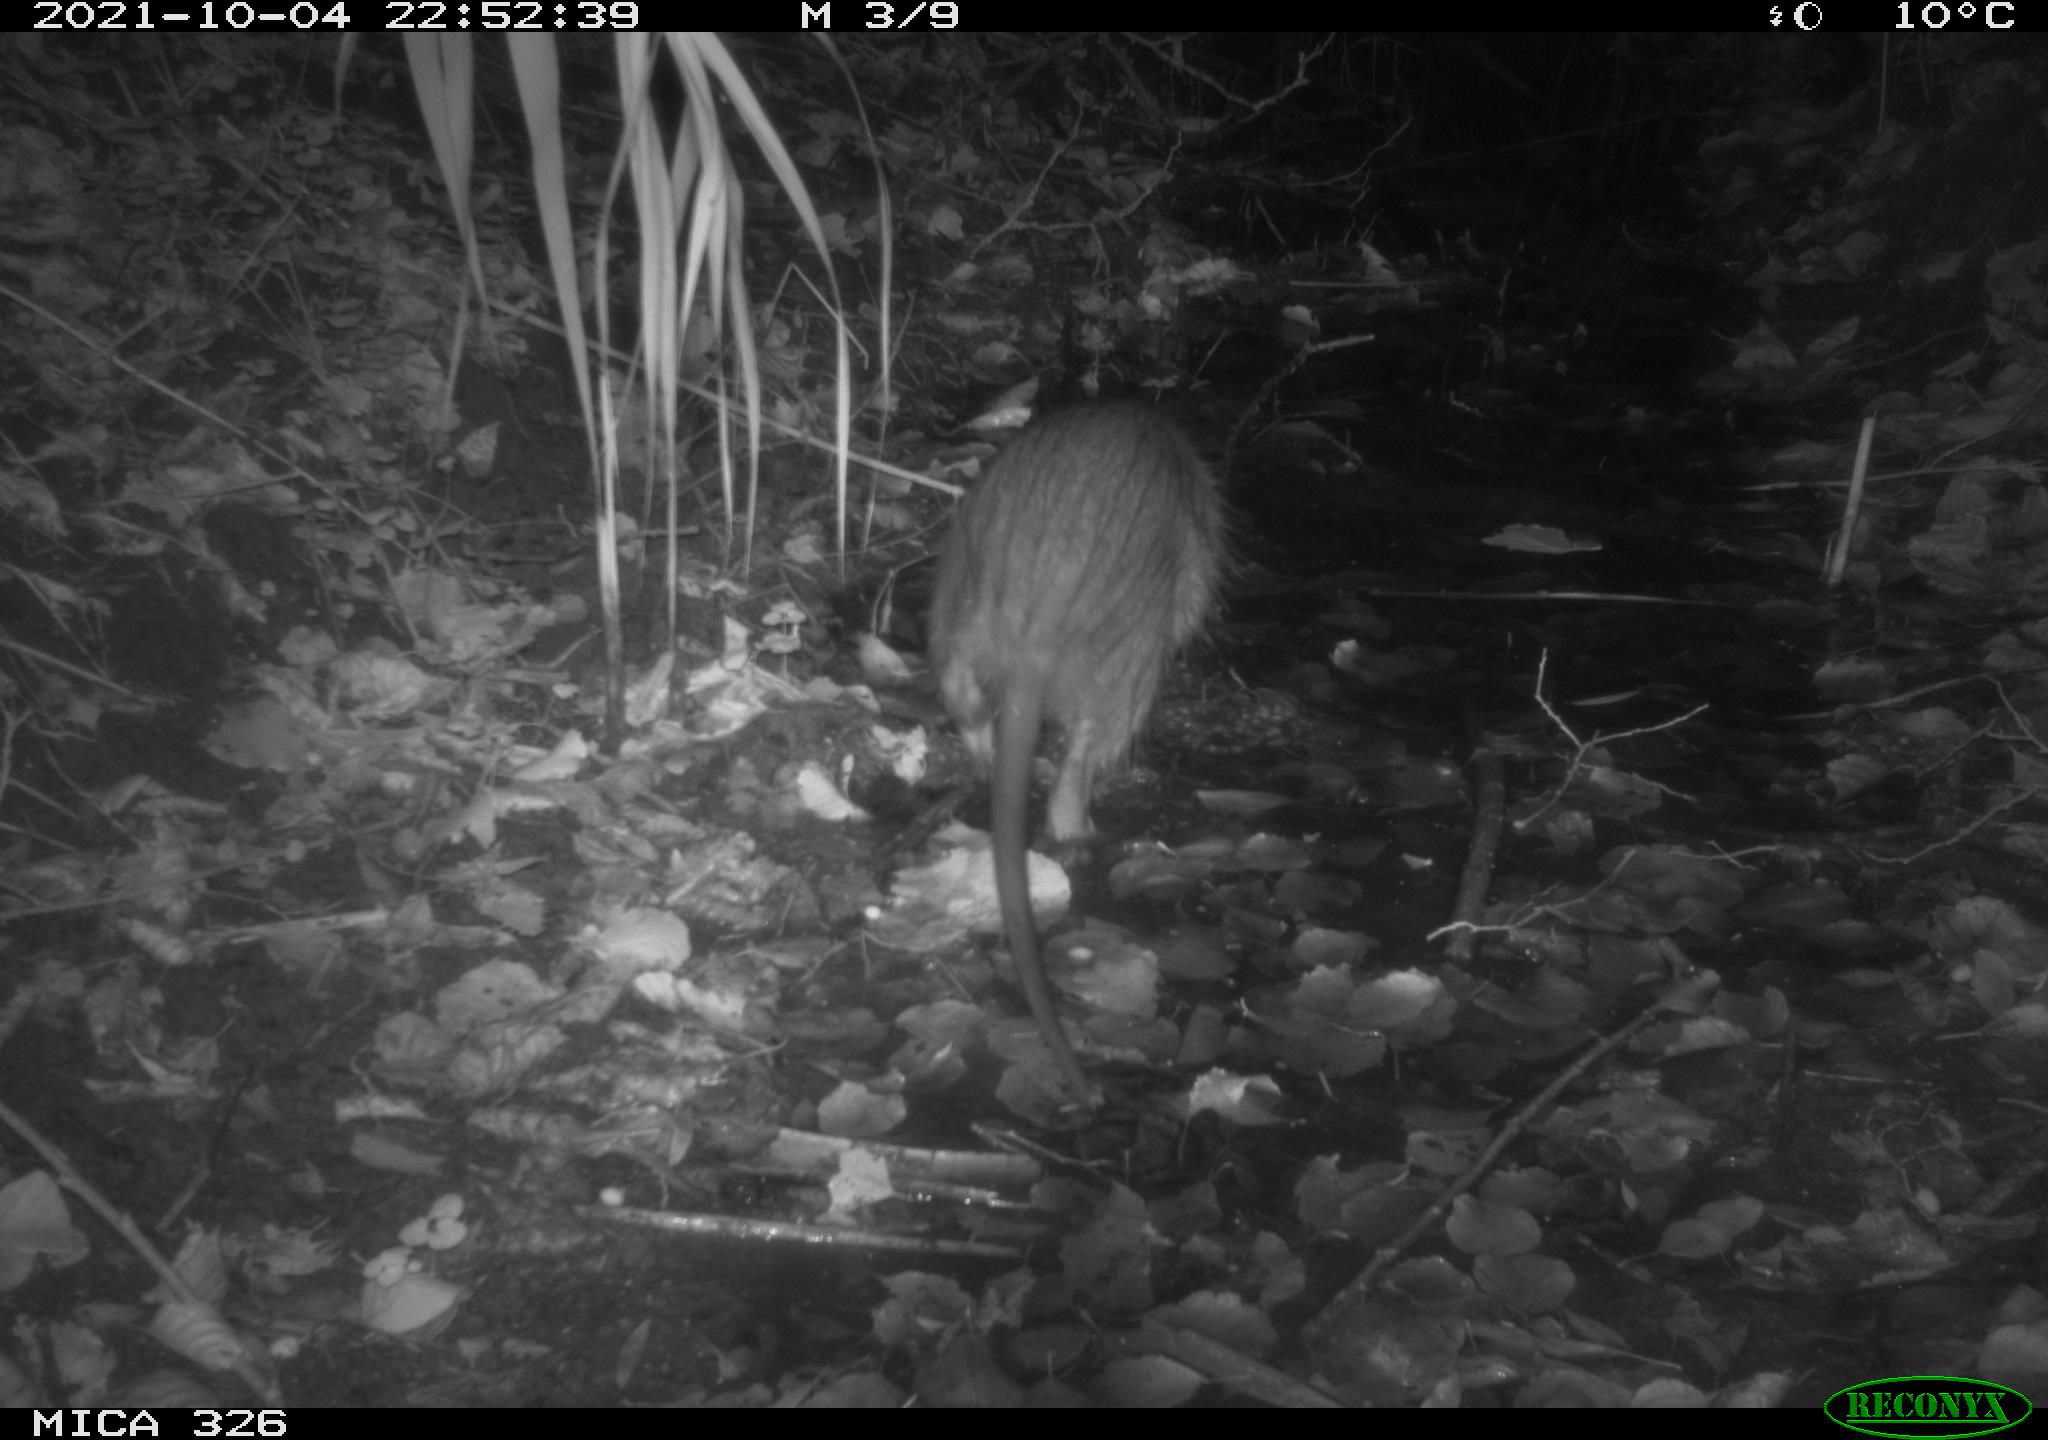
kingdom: Animalia
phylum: Chordata
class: Mammalia
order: Rodentia
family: Myocastoridae
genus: Myocastor
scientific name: Myocastor coypus
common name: Coypu
